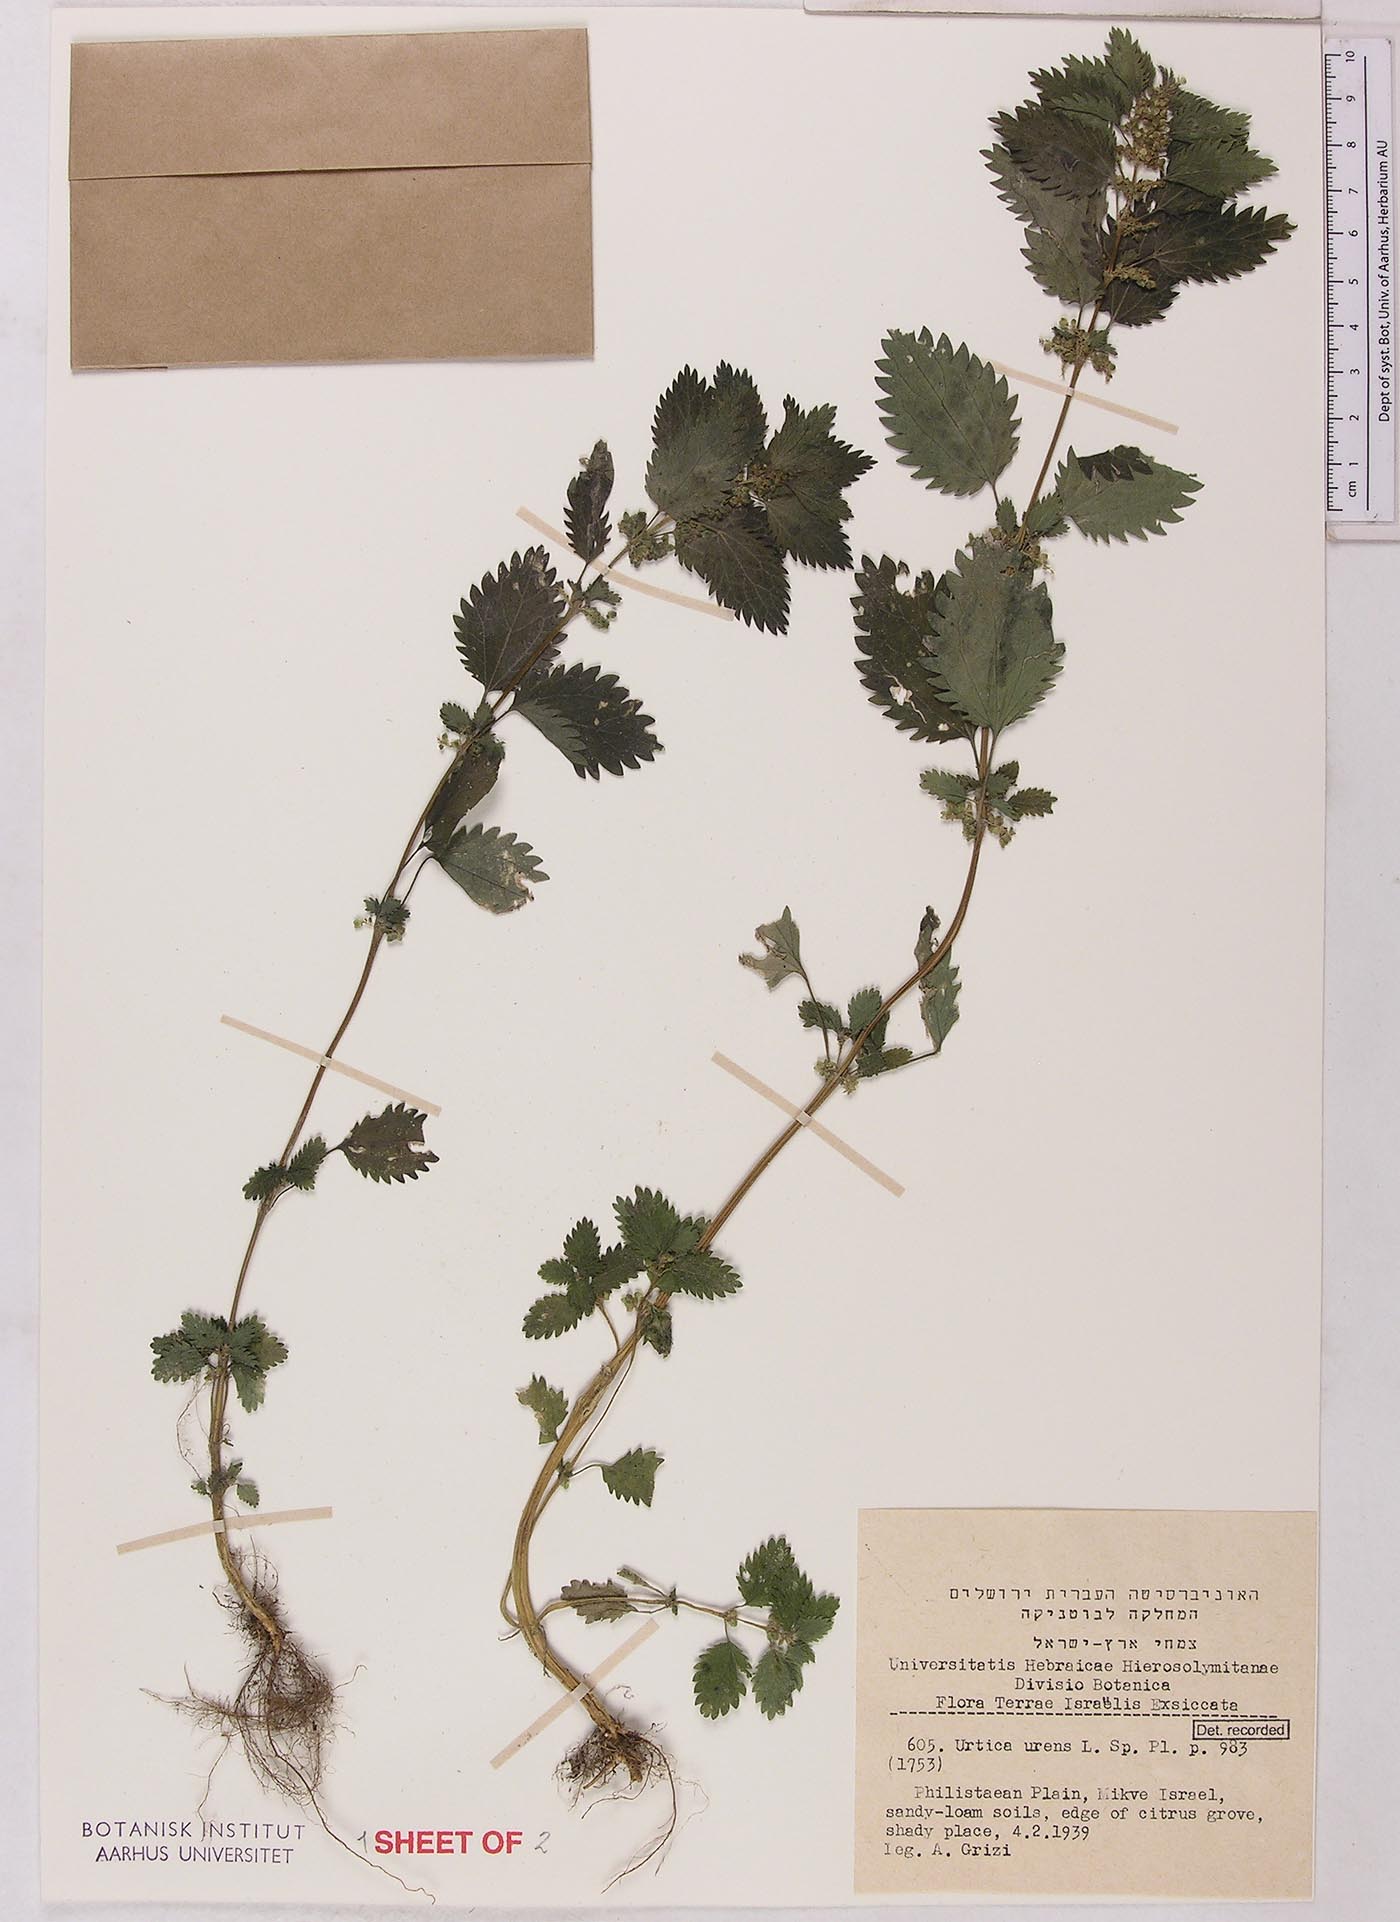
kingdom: Plantae
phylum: Tracheophyta
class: Magnoliopsida
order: Rosales
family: Urticaceae
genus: Urtica
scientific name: Urtica urens
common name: Dwarf nettle
